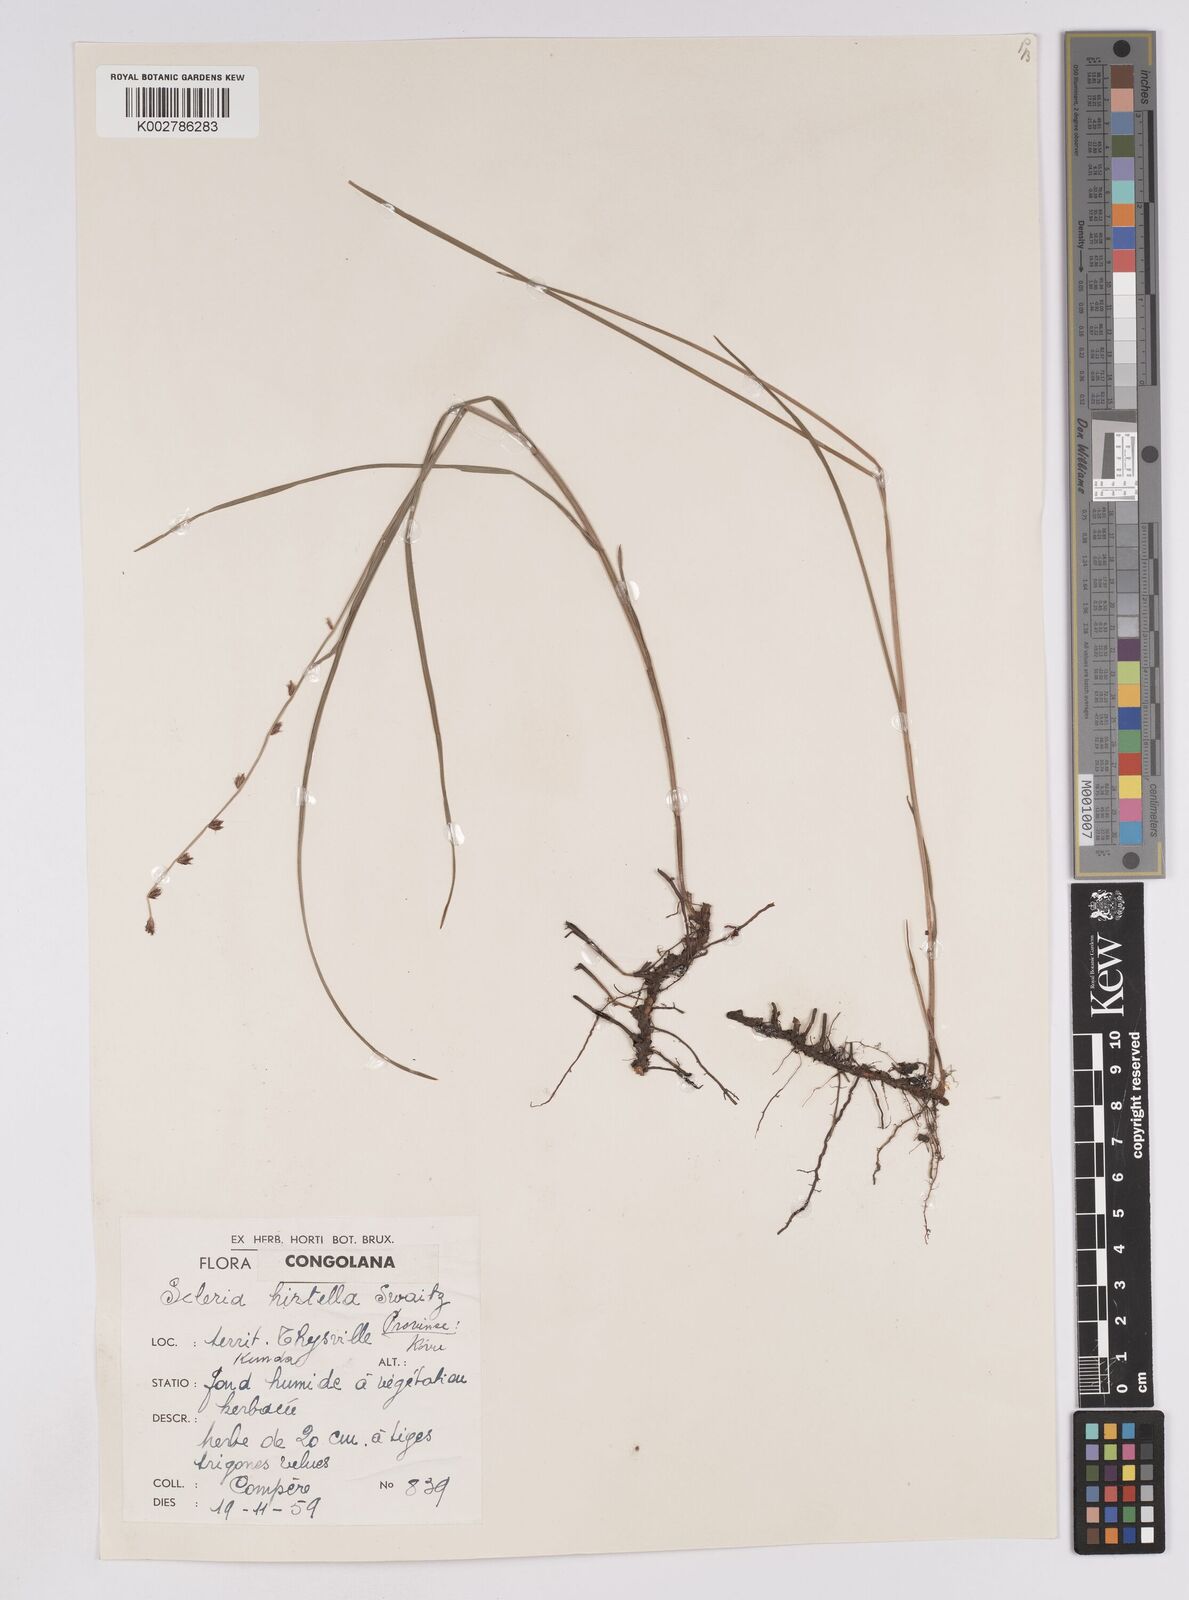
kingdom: Plantae
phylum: Tracheophyta
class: Liliopsida
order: Poales
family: Cyperaceae
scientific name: Cyperaceae
